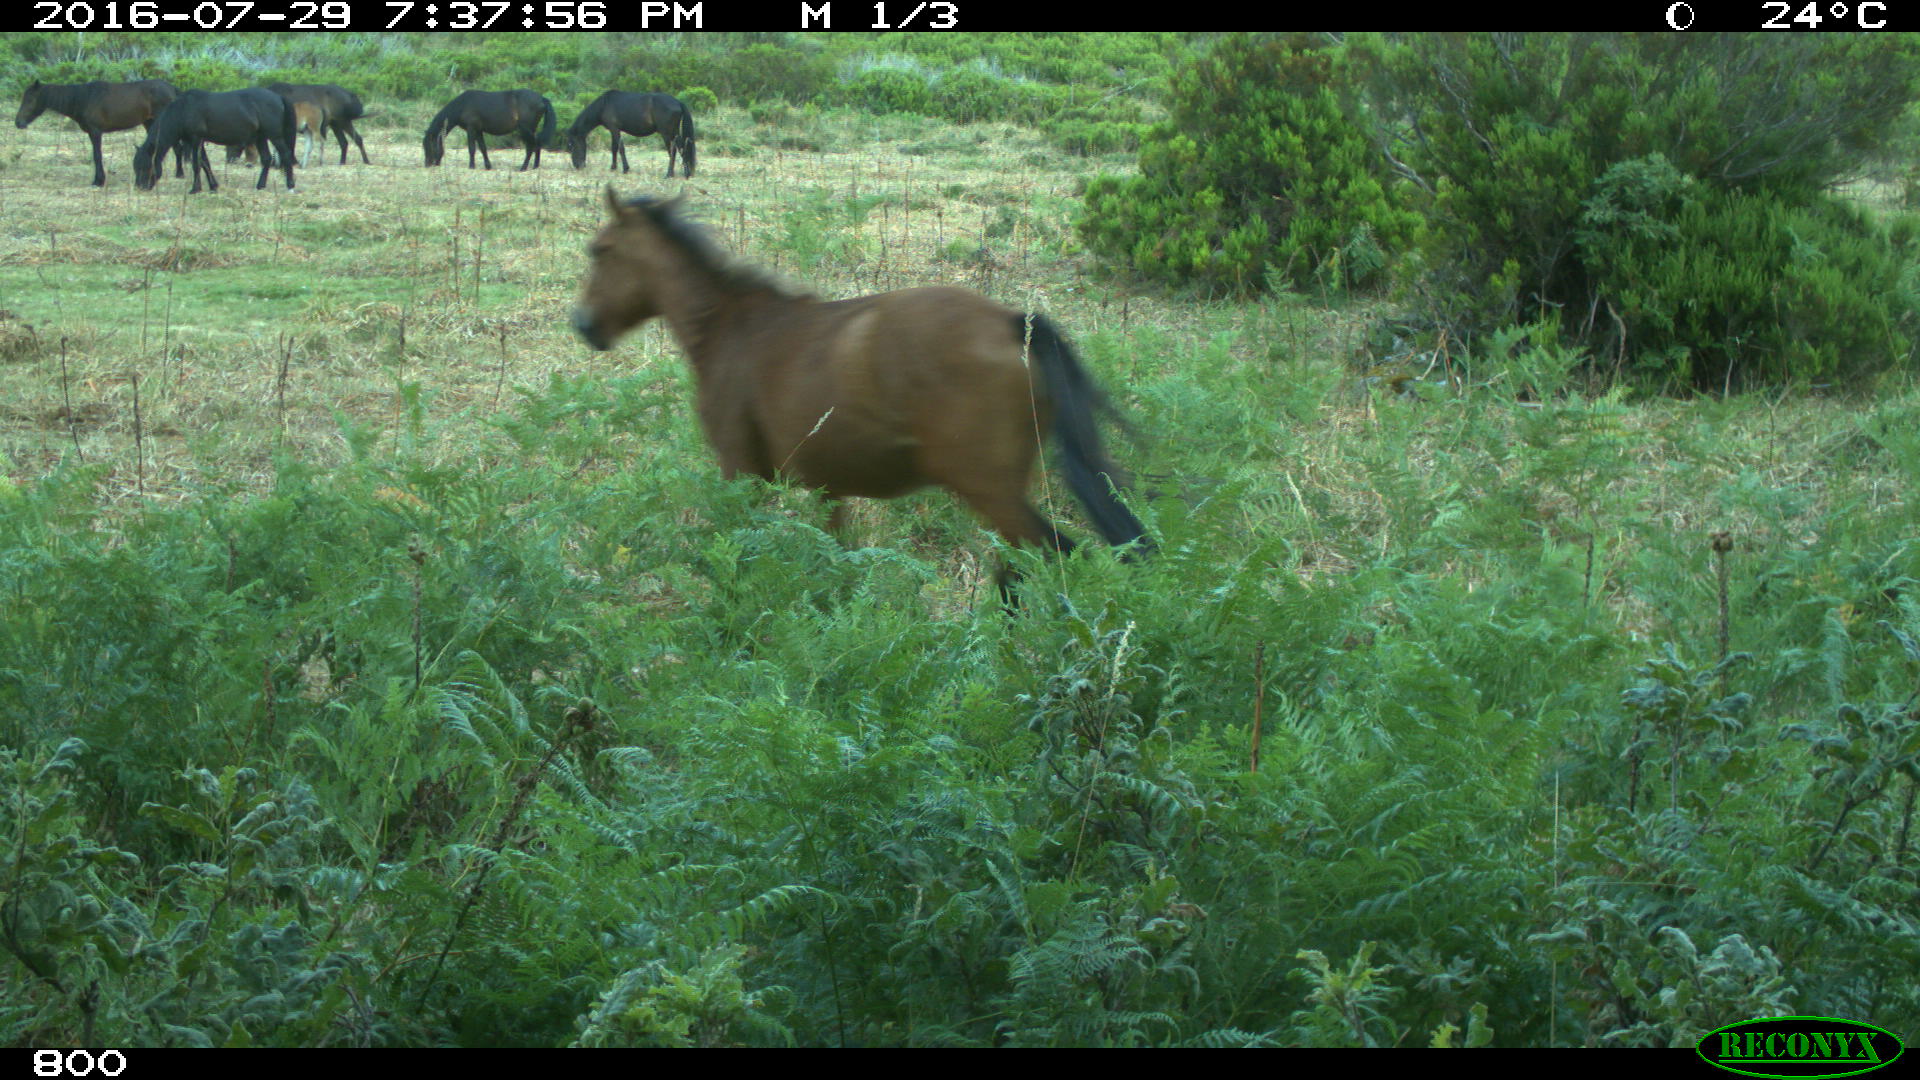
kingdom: Animalia
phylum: Chordata
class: Mammalia
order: Perissodactyla
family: Equidae
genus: Equus
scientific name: Equus caballus
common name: Horse
